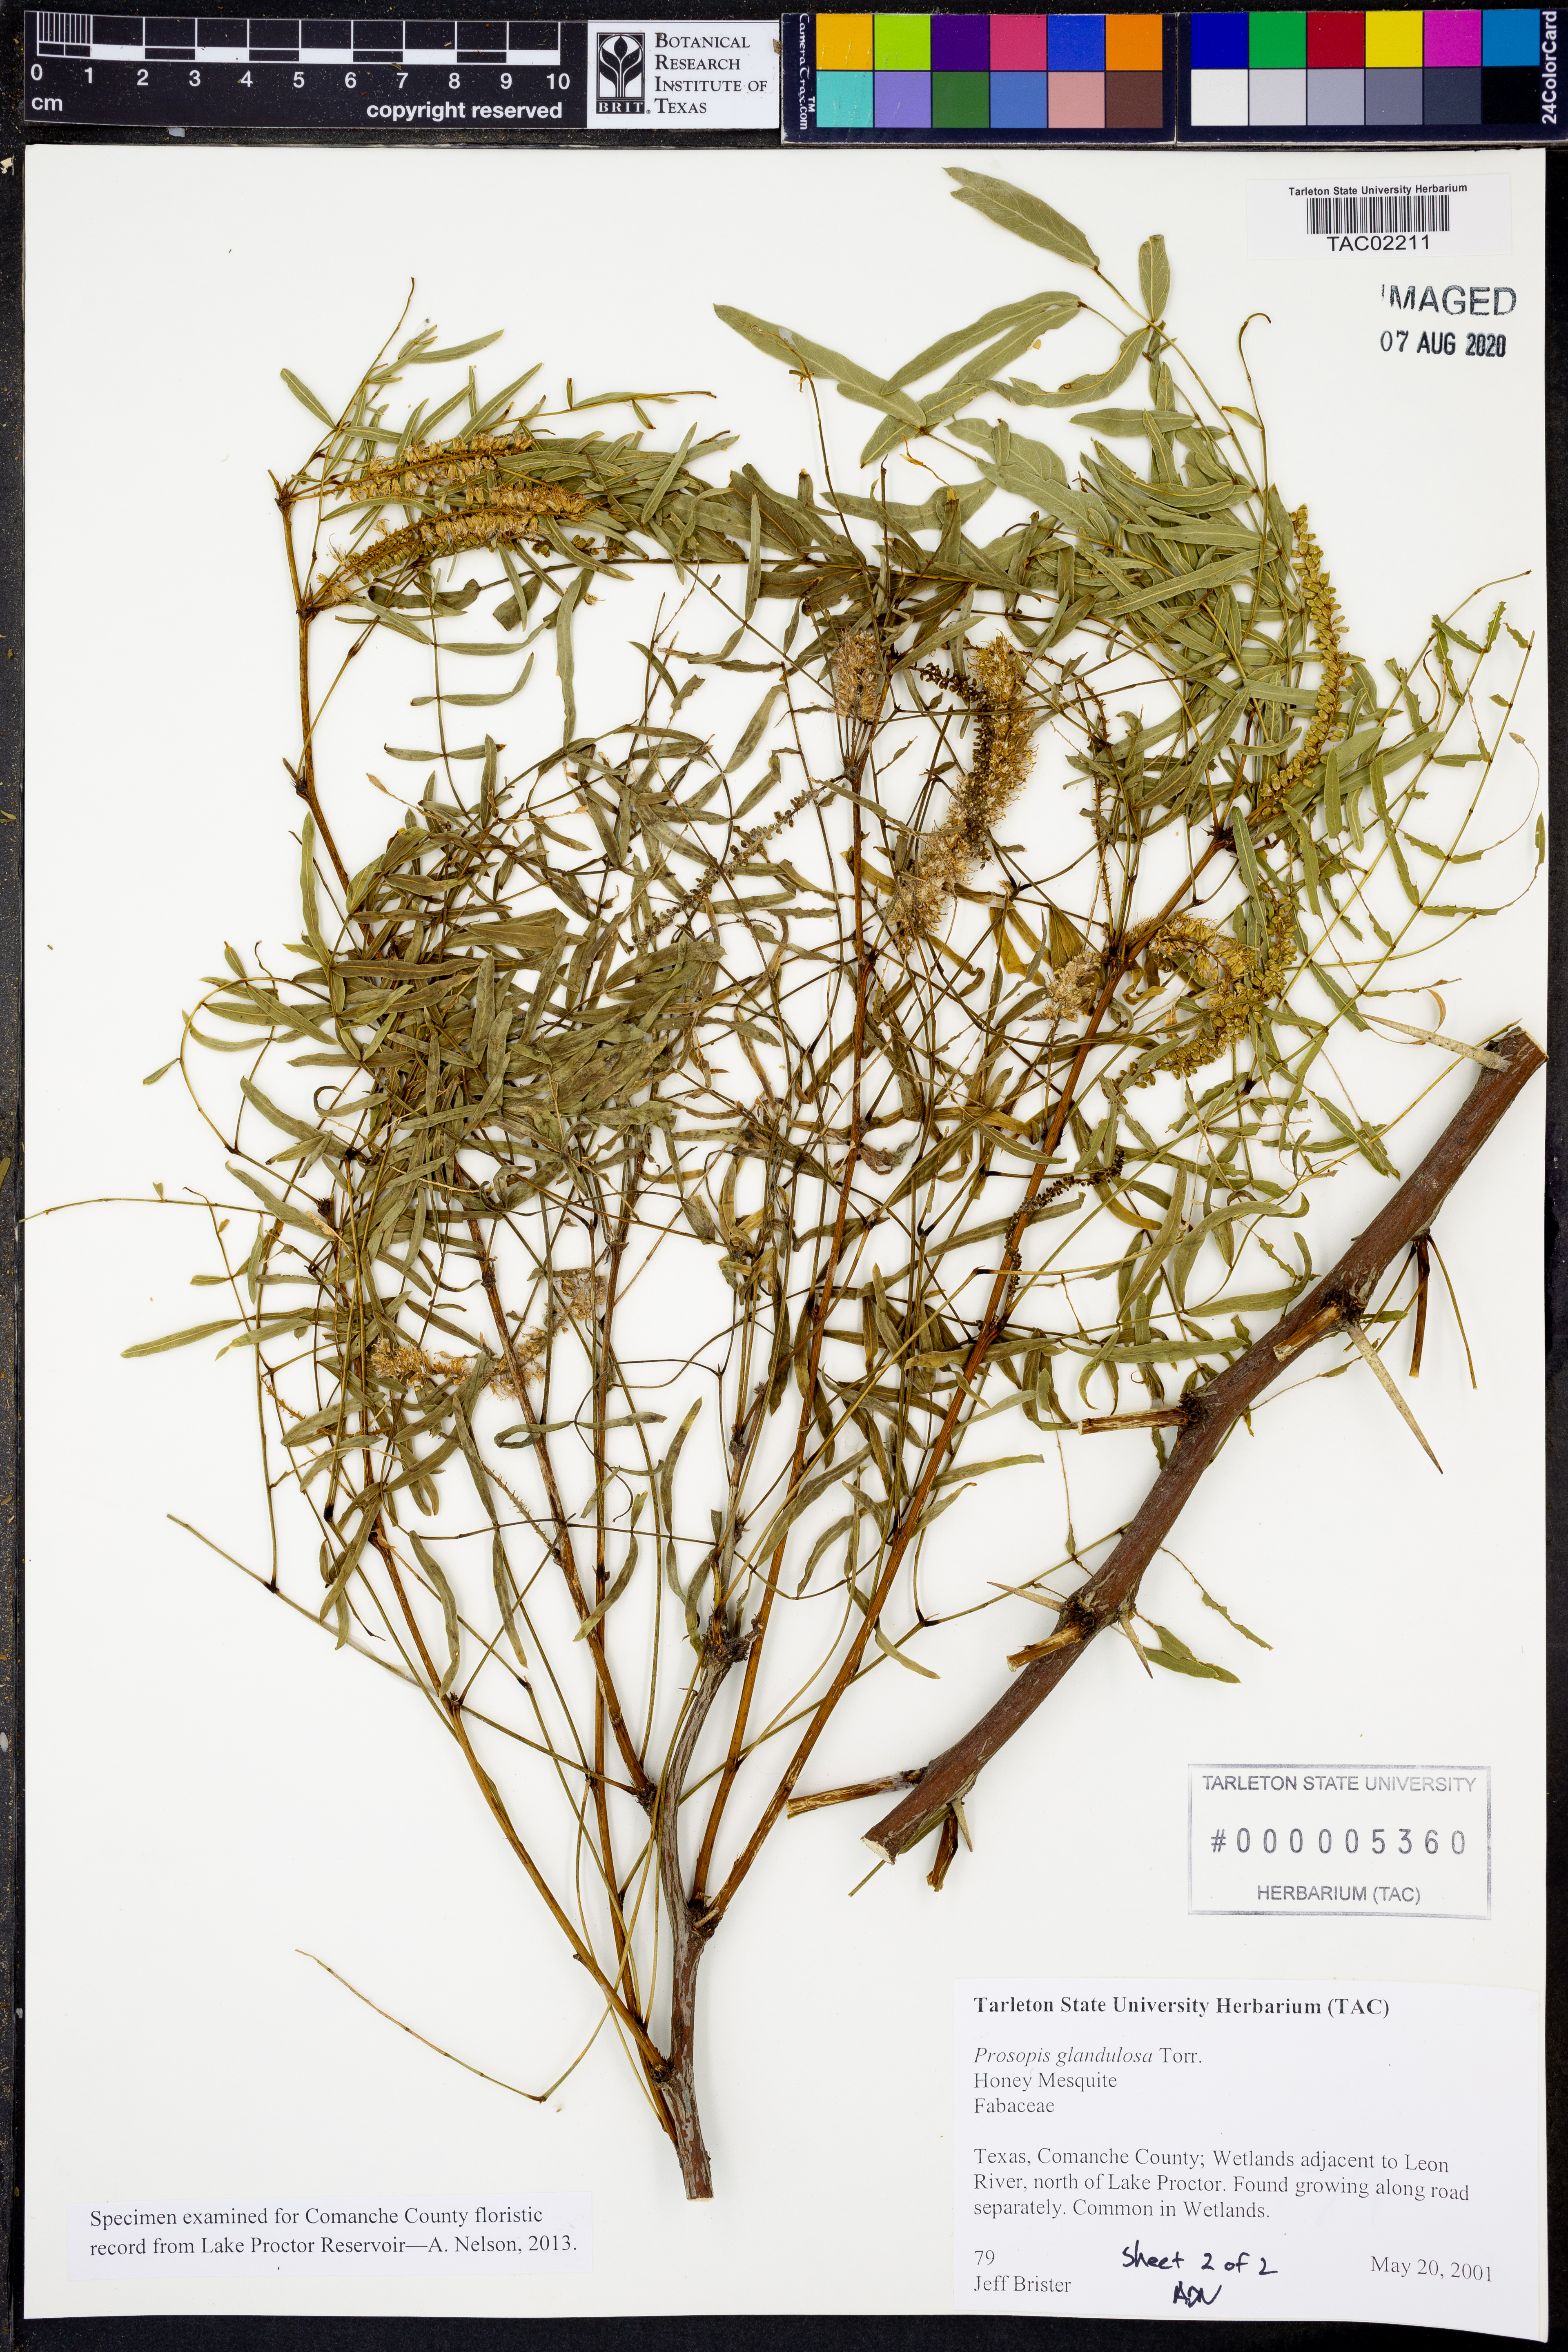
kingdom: Plantae
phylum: Tracheophyta
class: Magnoliopsida
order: Fabales
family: Fabaceae
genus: Prosopis
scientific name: Prosopis glandulosa
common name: Honey mesquite
